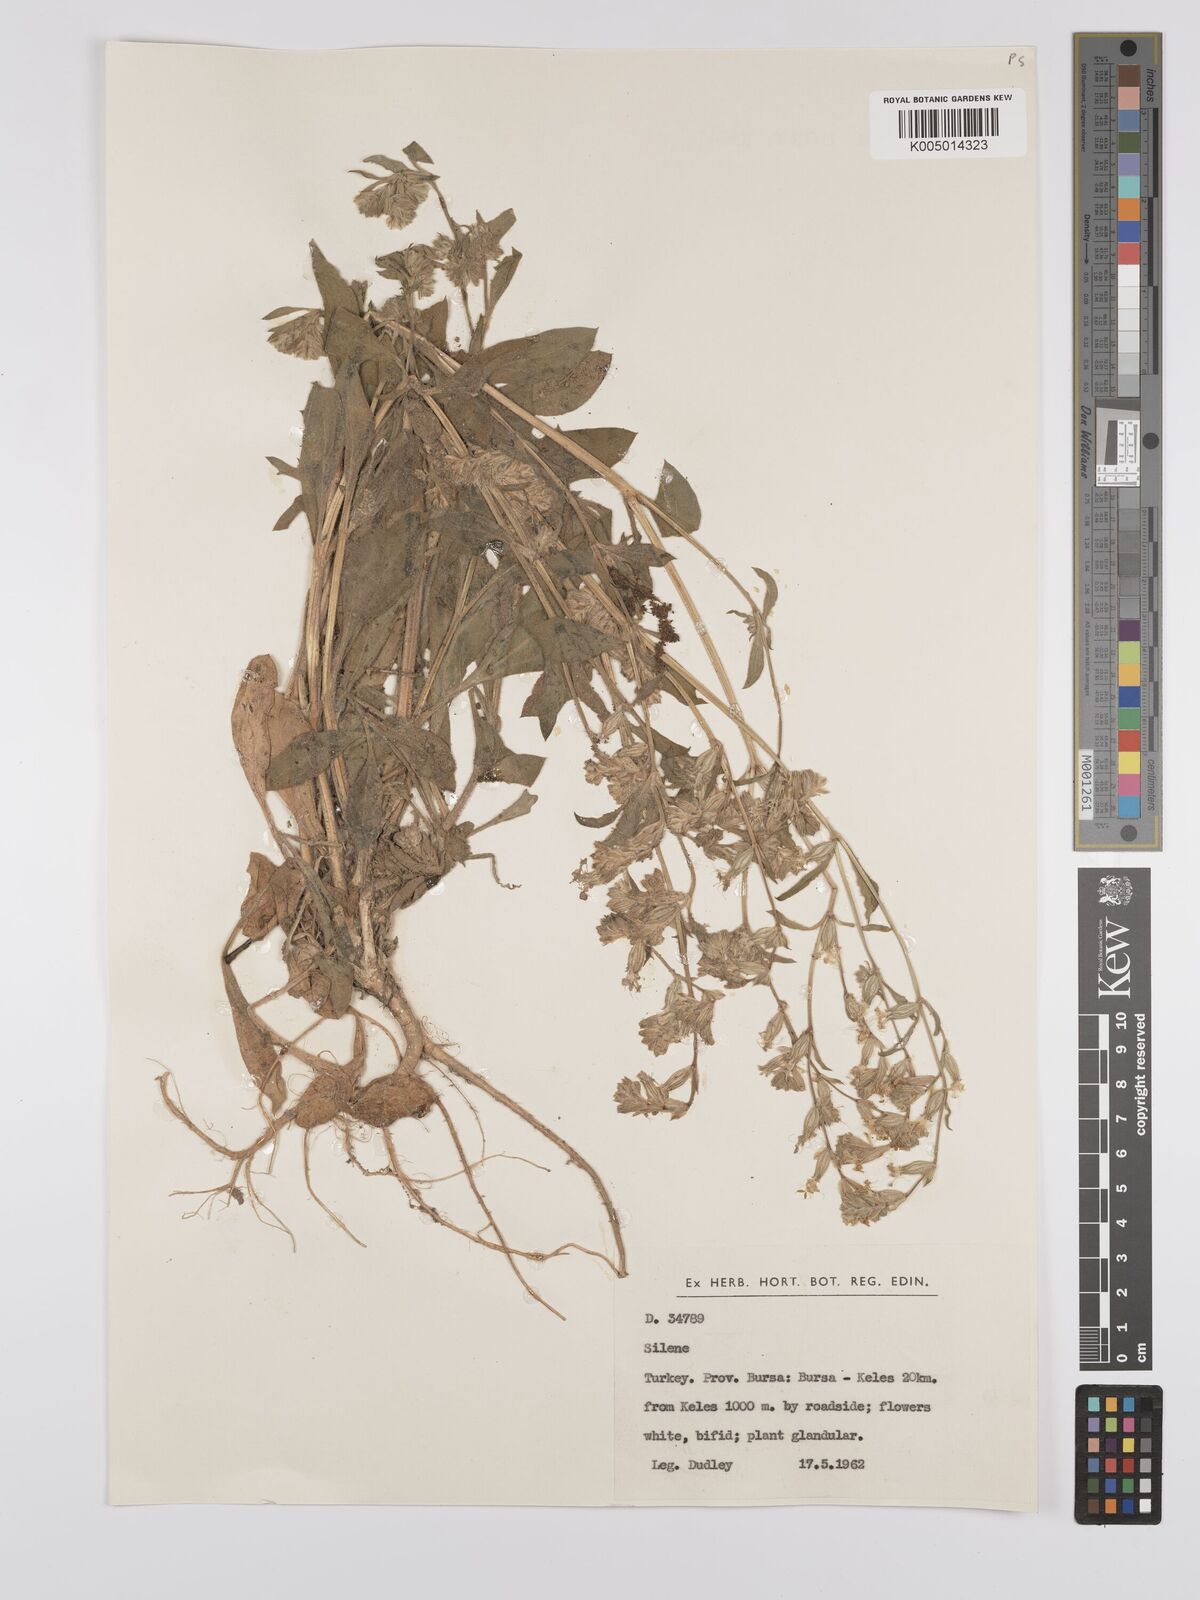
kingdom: Plantae
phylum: Tracheophyta
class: Magnoliopsida
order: Caryophyllales
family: Caryophyllaceae
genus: Silene
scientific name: Silene
